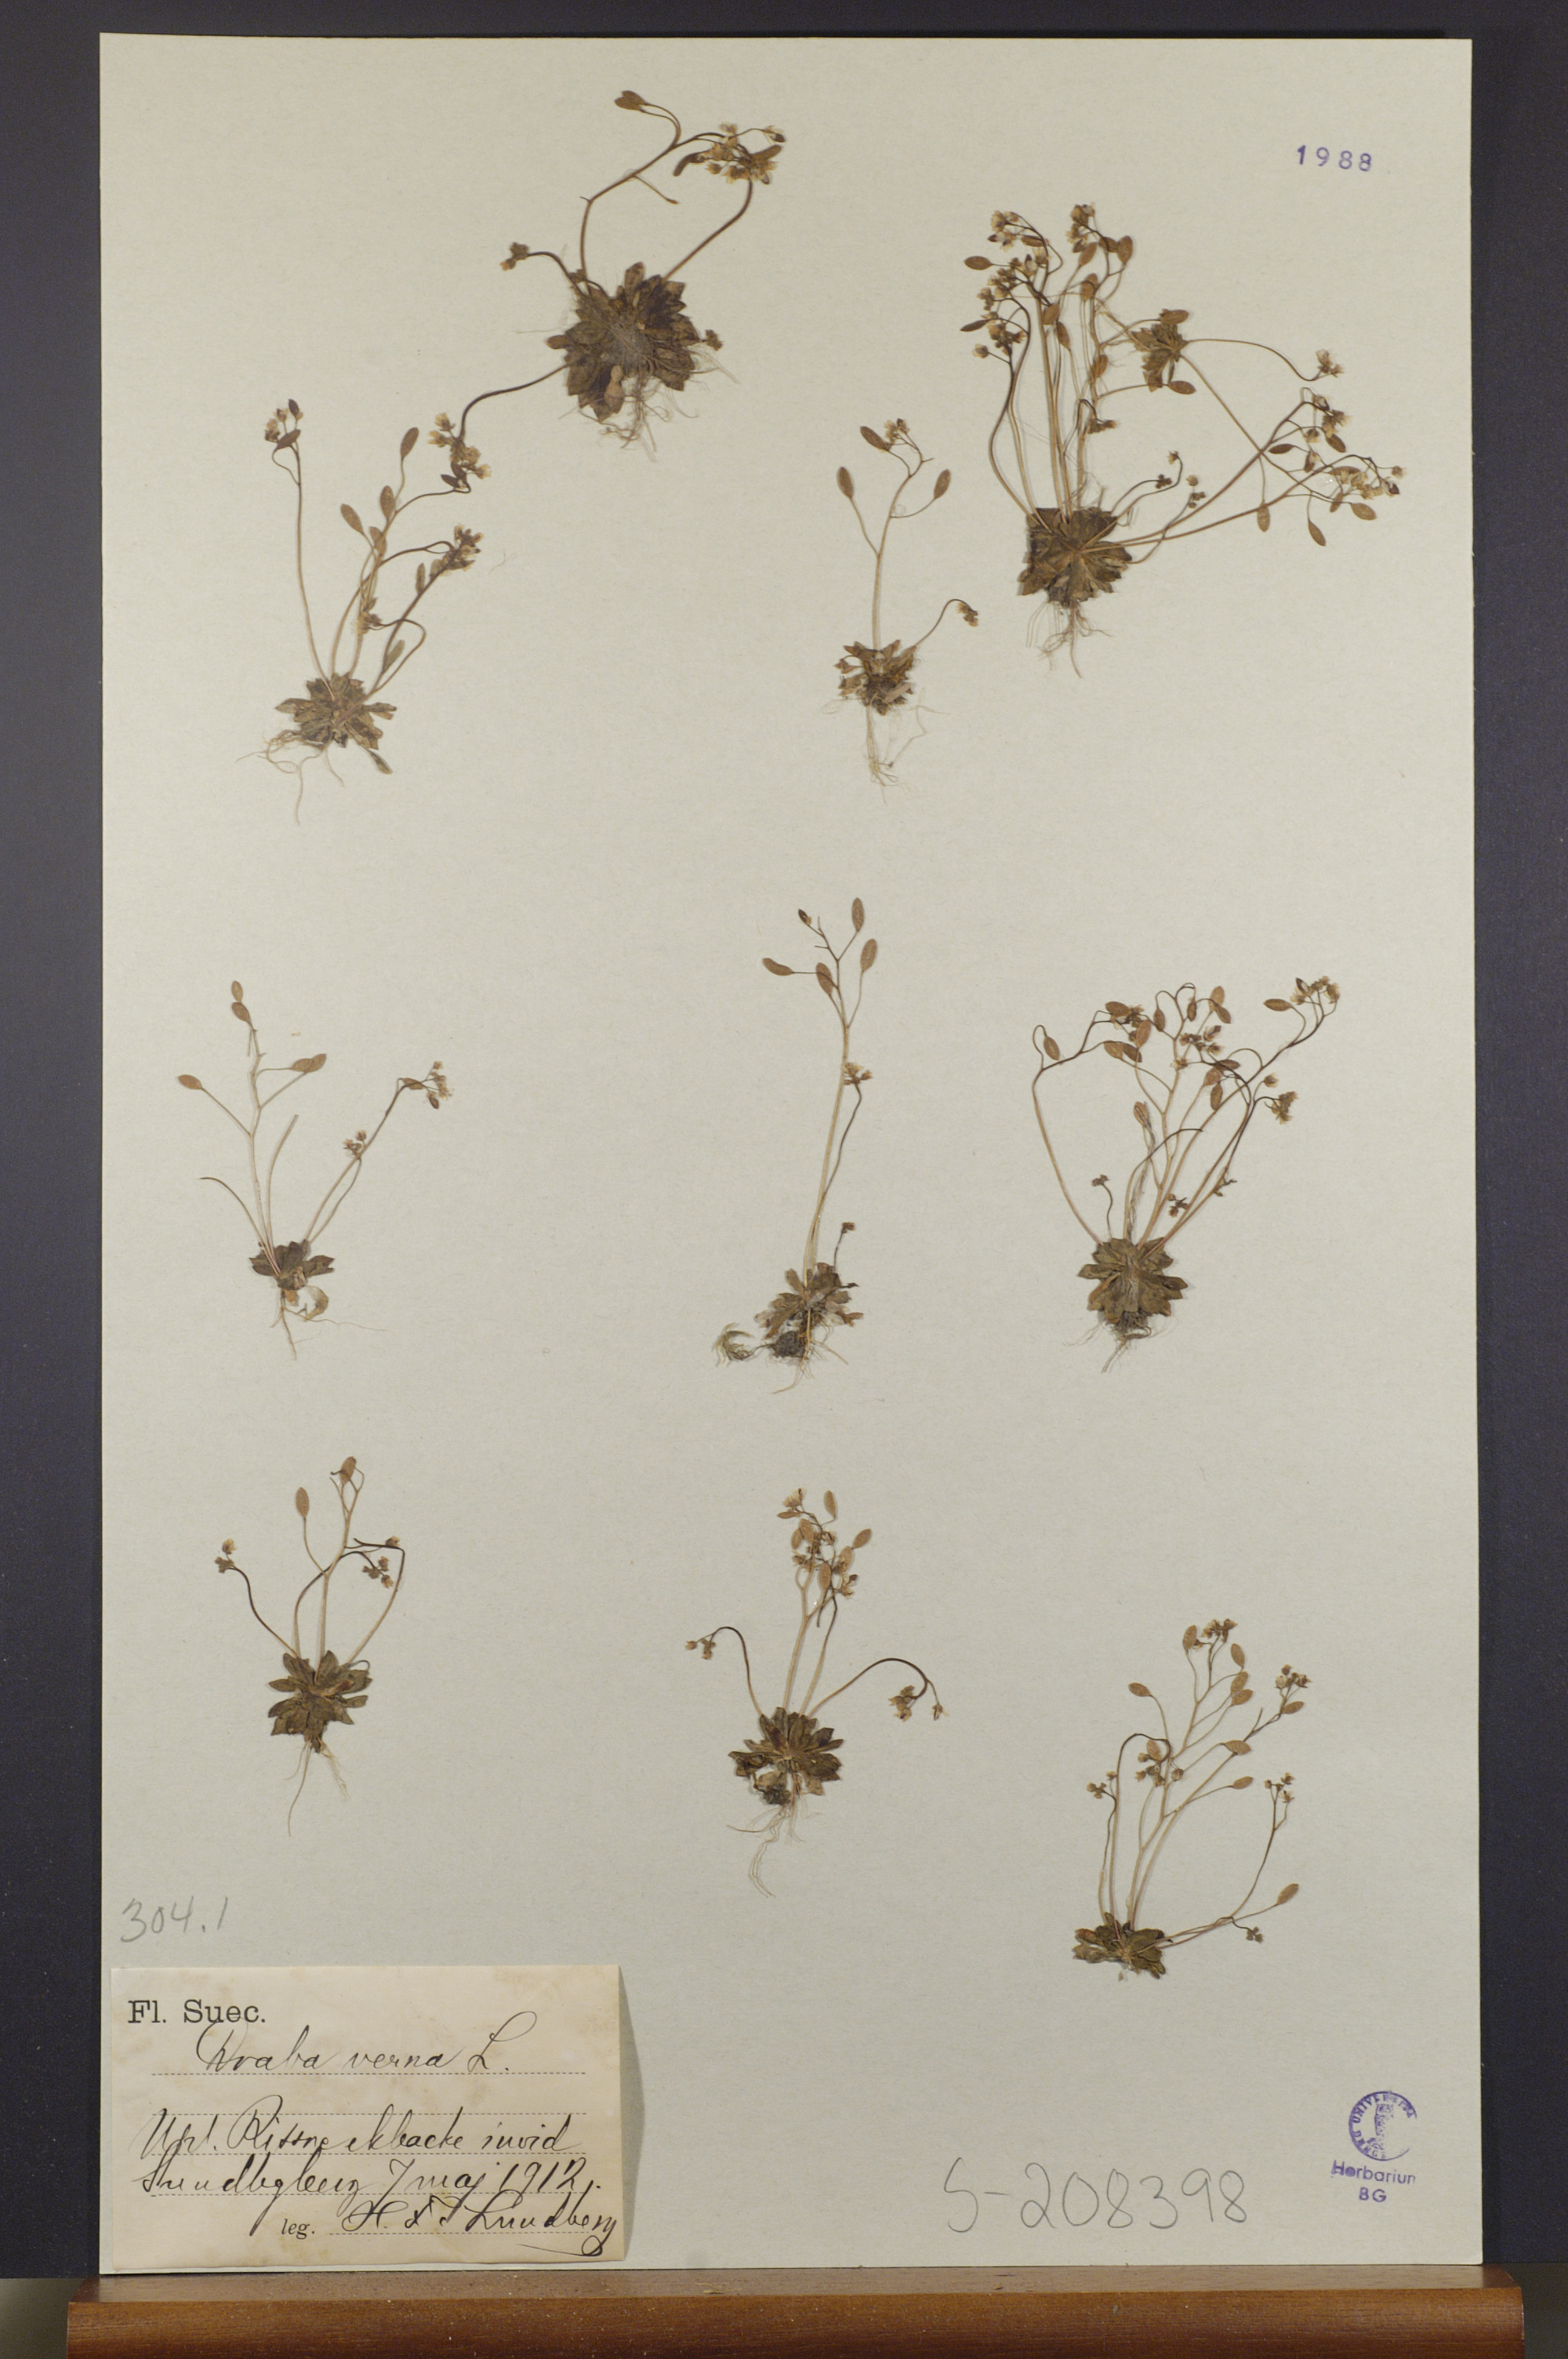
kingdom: Plantae
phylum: Tracheophyta
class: Magnoliopsida
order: Brassicales
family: Brassicaceae
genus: Draba
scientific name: Draba verna
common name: Spring draba
